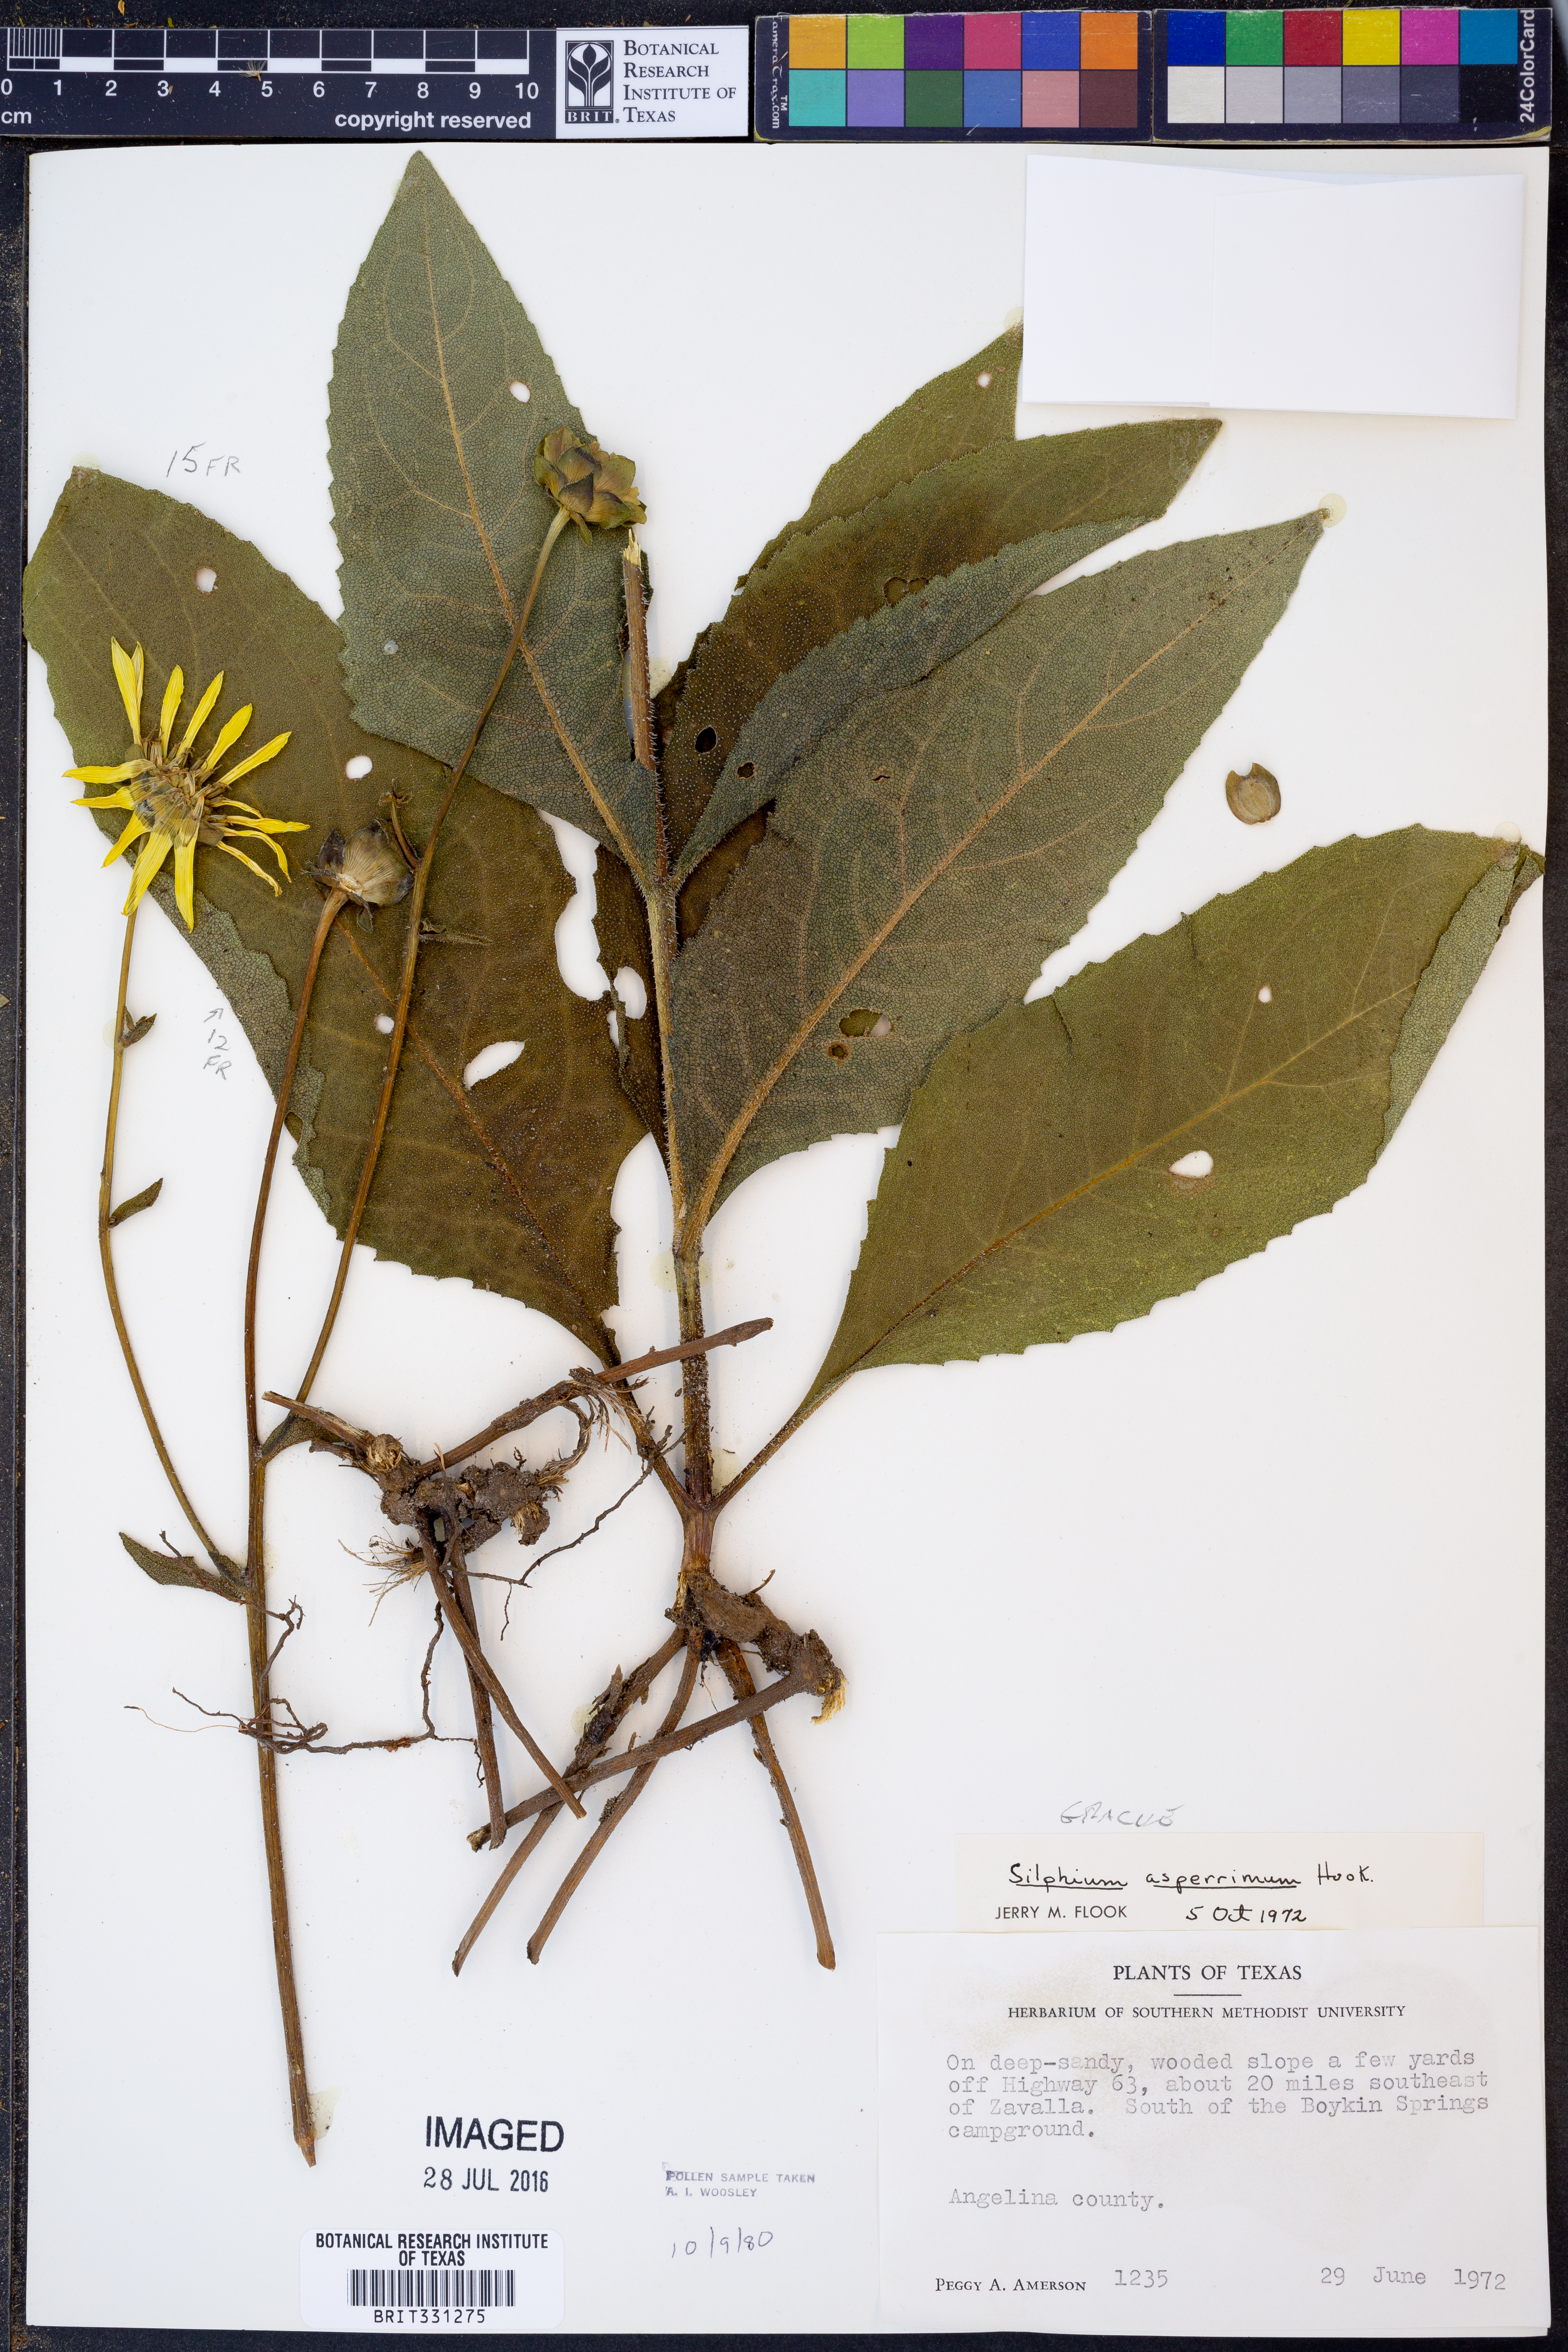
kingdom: Plantae
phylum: Tracheophyta
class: Magnoliopsida
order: Asterales
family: Asteraceae
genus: Silphium
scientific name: Silphium radula
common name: Roughleaf rosinweed
